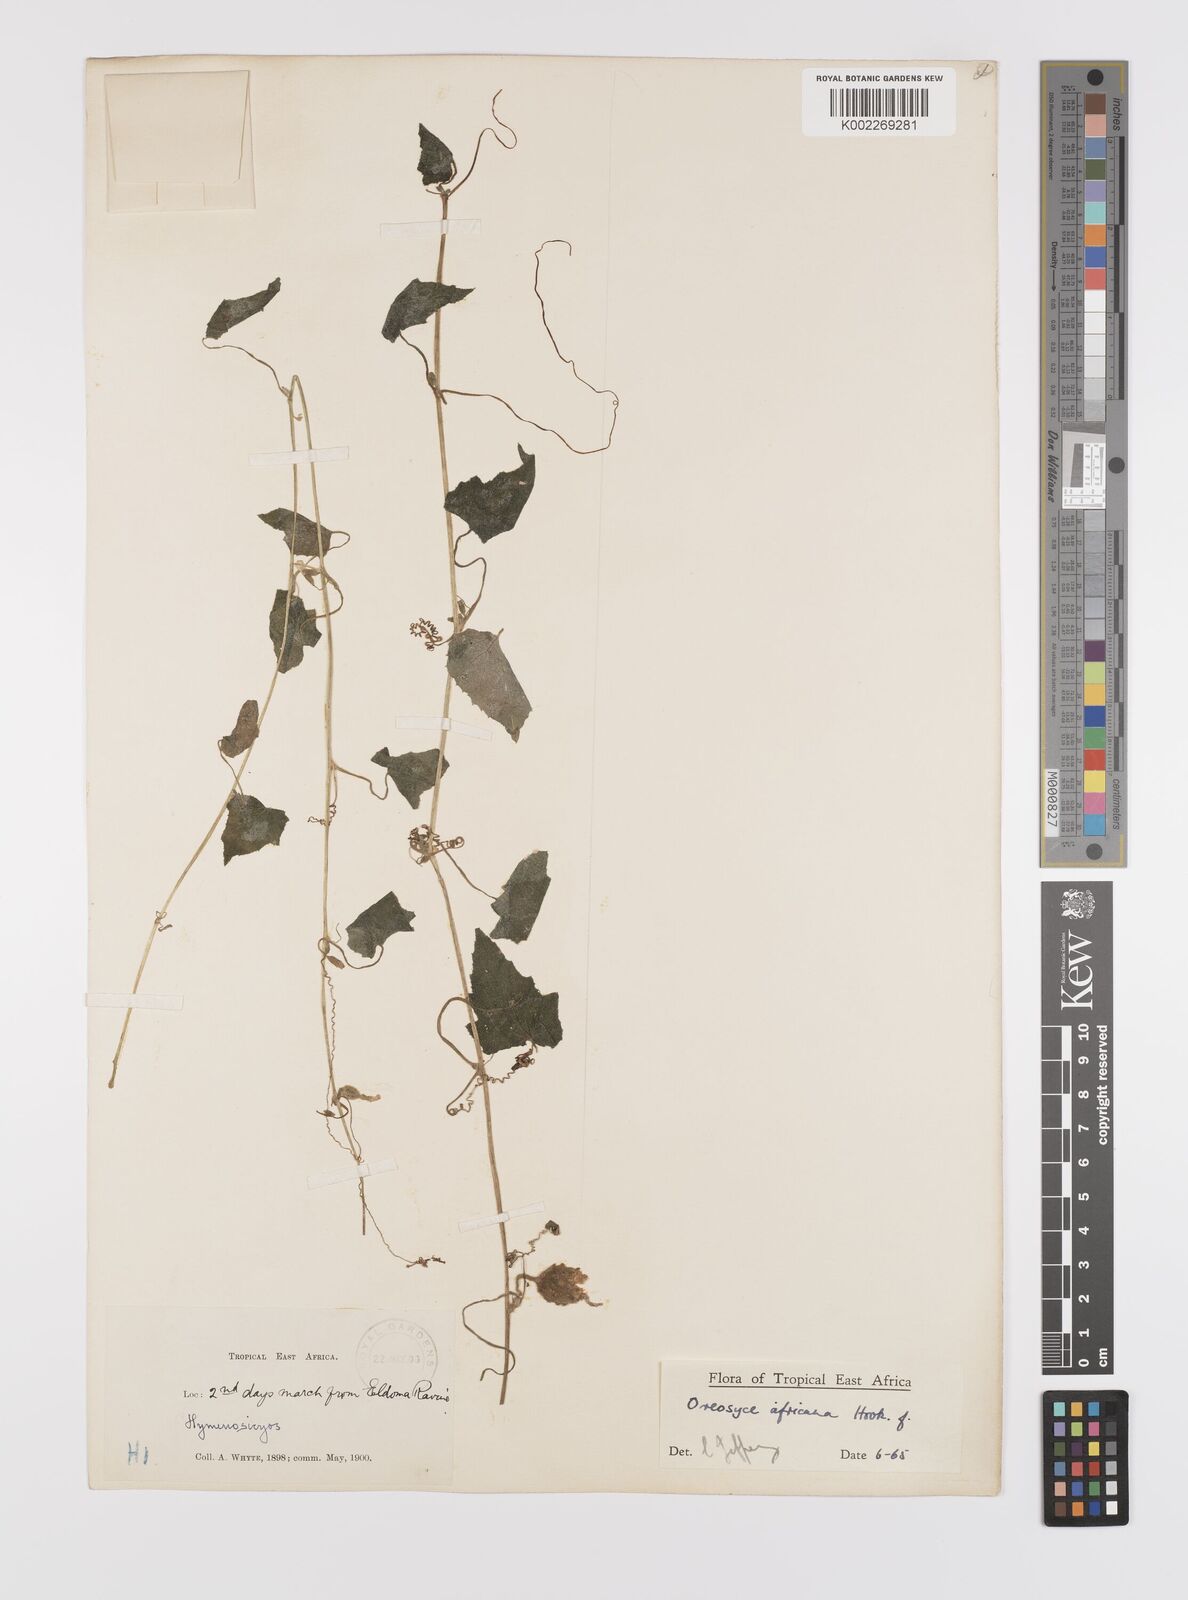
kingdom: Plantae
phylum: Tracheophyta
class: Magnoliopsida
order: Cucurbitales
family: Cucurbitaceae
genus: Cucumis
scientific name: Cucumis oreosyce
